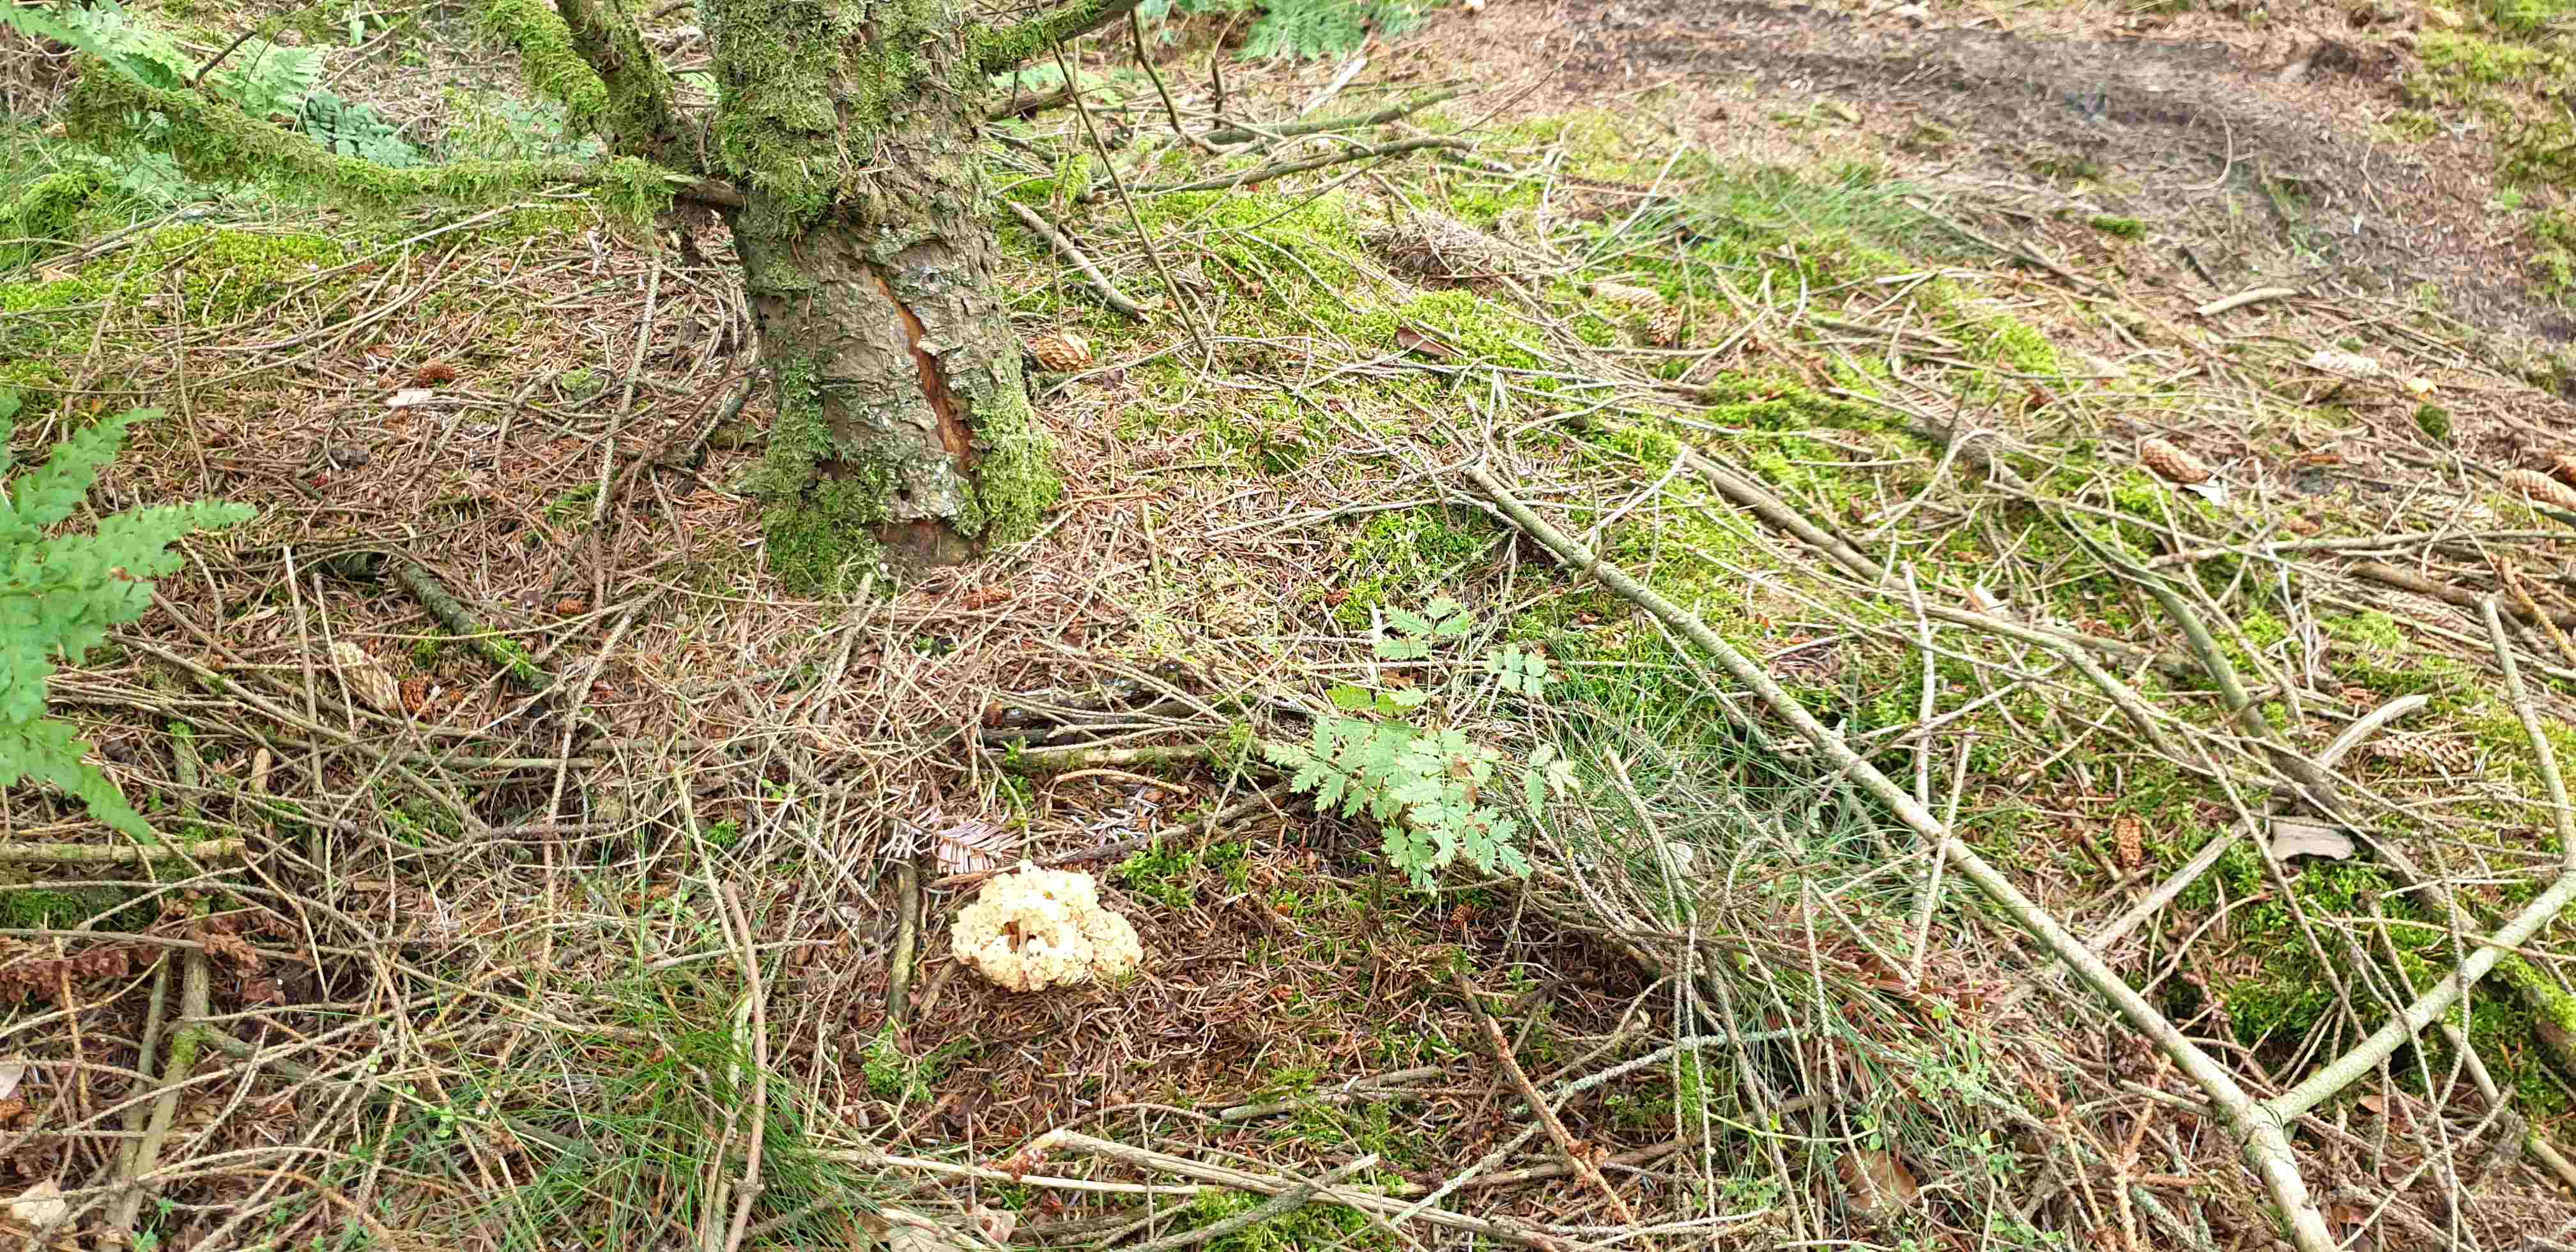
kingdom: Fungi
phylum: Basidiomycota
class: Agaricomycetes
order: Polyporales
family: Sparassidaceae
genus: Sparassis
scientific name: Sparassis crispa
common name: kruset blomkålssvamp
